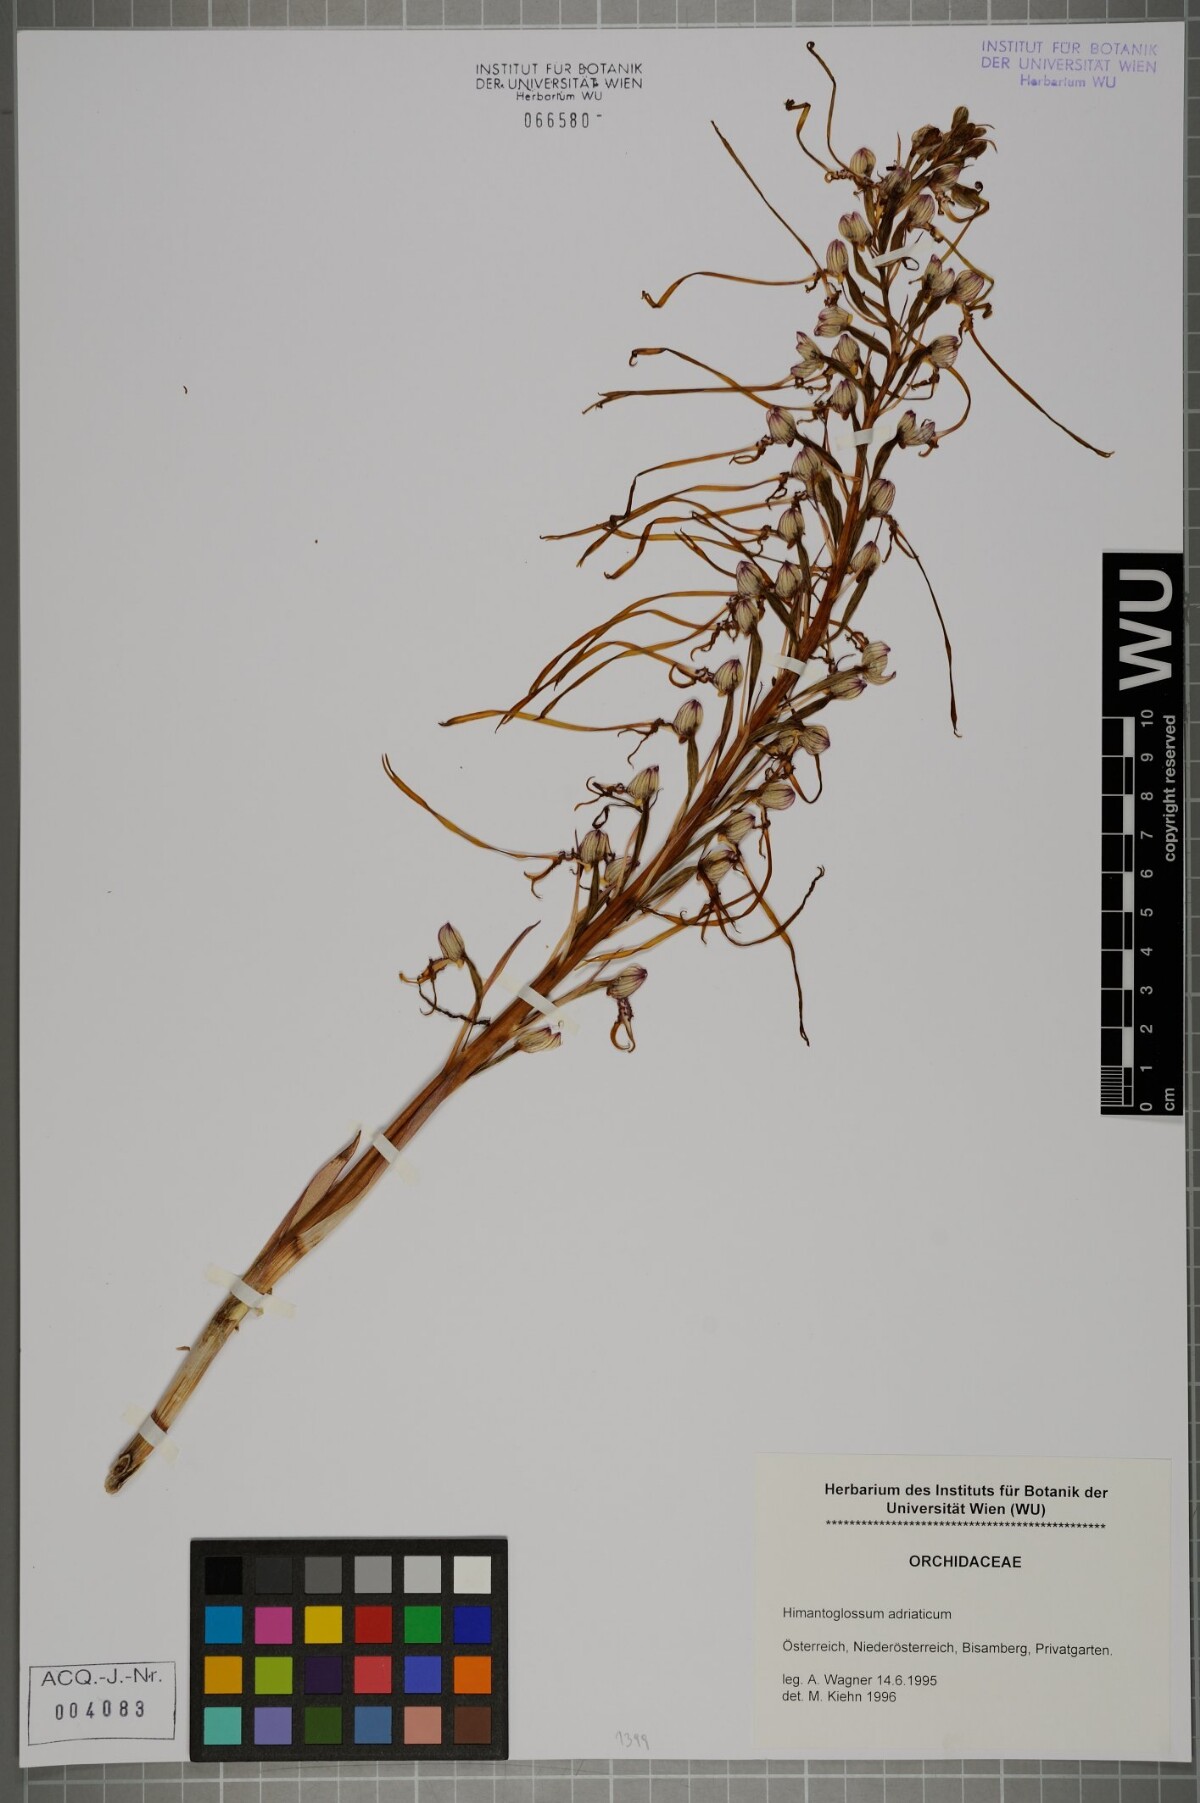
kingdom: Plantae
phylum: Tracheophyta
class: Liliopsida
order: Asparagales
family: Orchidaceae
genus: Himantoglossum
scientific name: Himantoglossum adriaticum
